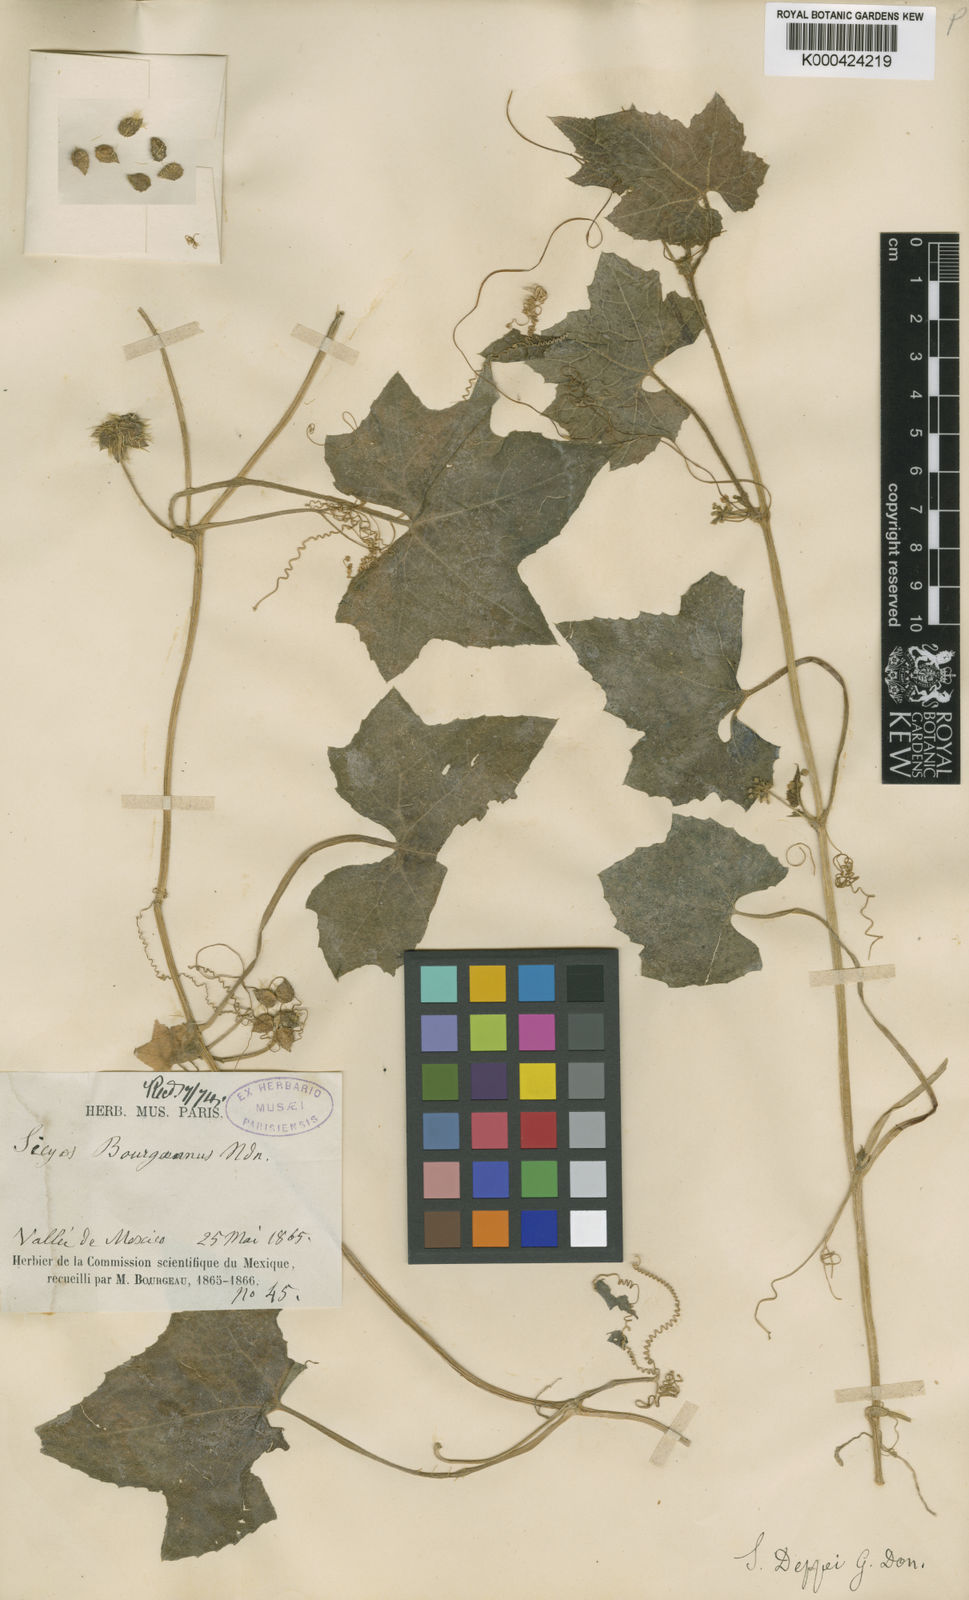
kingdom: Plantae
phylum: Tracheophyta
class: Magnoliopsida
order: Cucurbitales
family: Cucurbitaceae
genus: Sicyos
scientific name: Sicyos microphyllos
